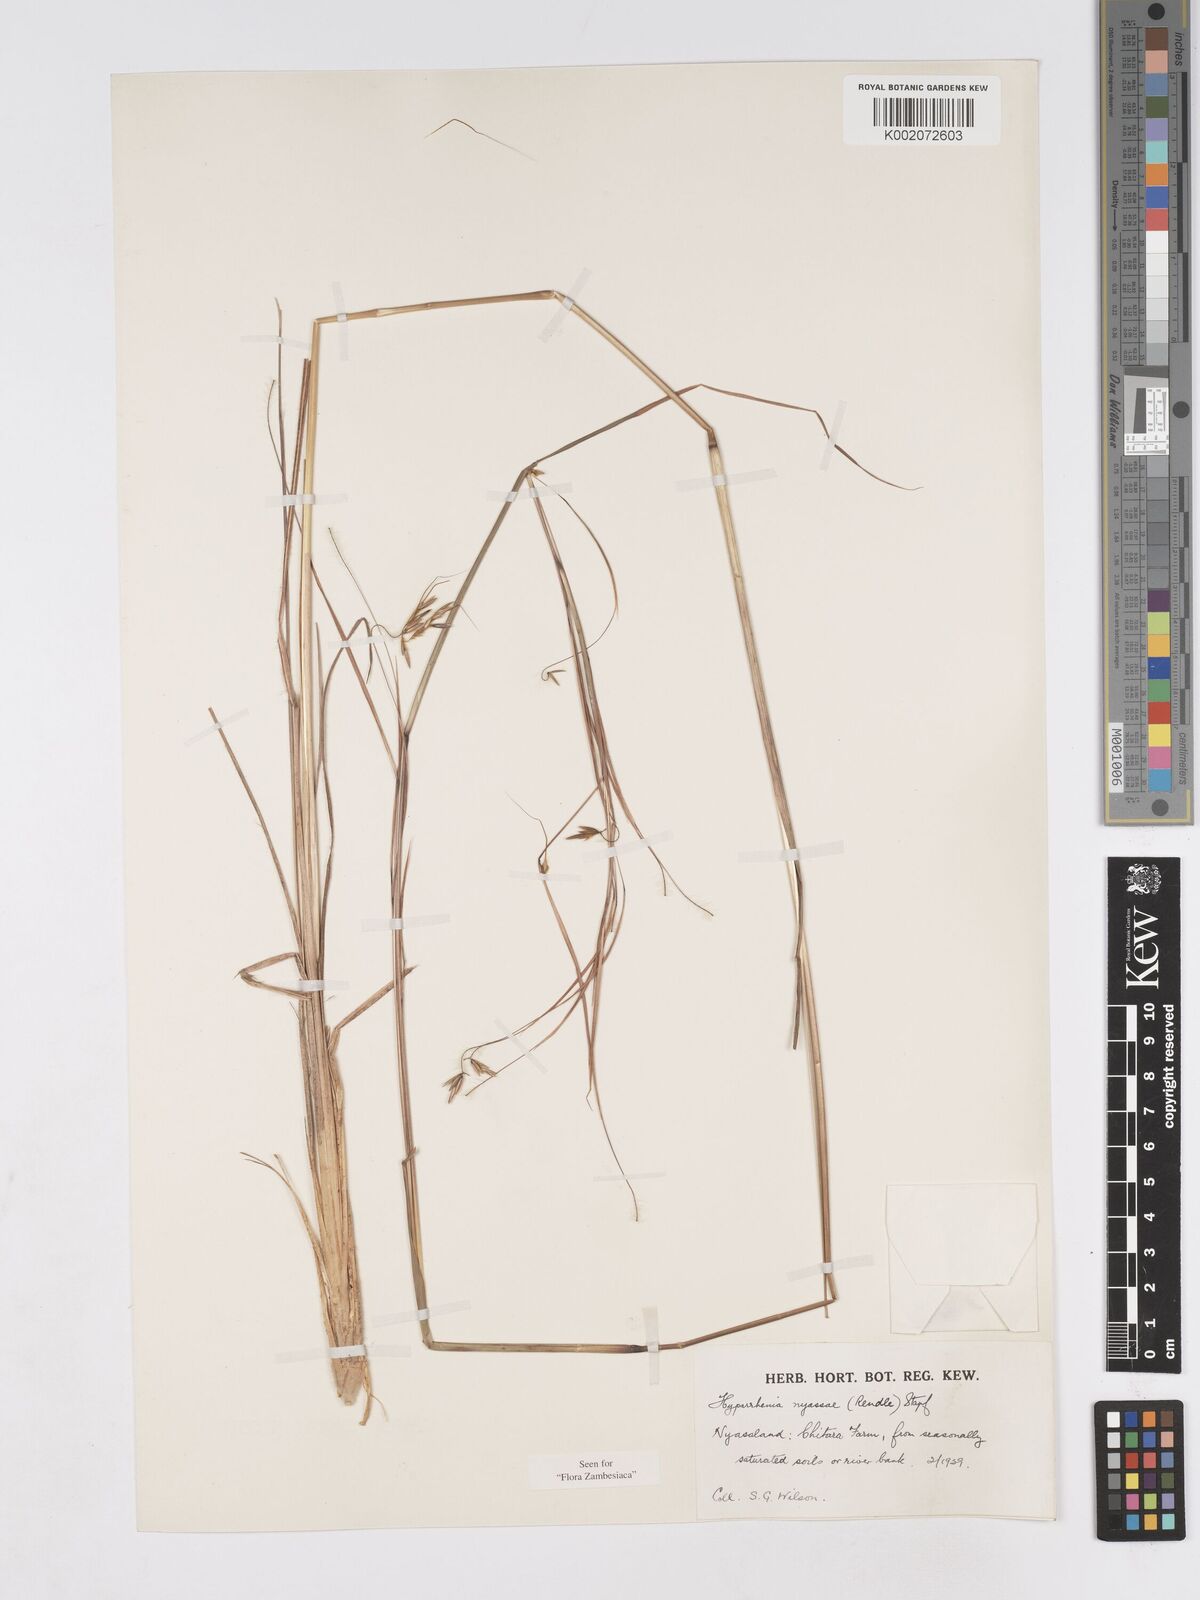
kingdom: Plantae
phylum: Tracheophyta
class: Liliopsida
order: Poales
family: Poaceae
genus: Hyparrhenia
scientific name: Hyparrhenia nyassae
